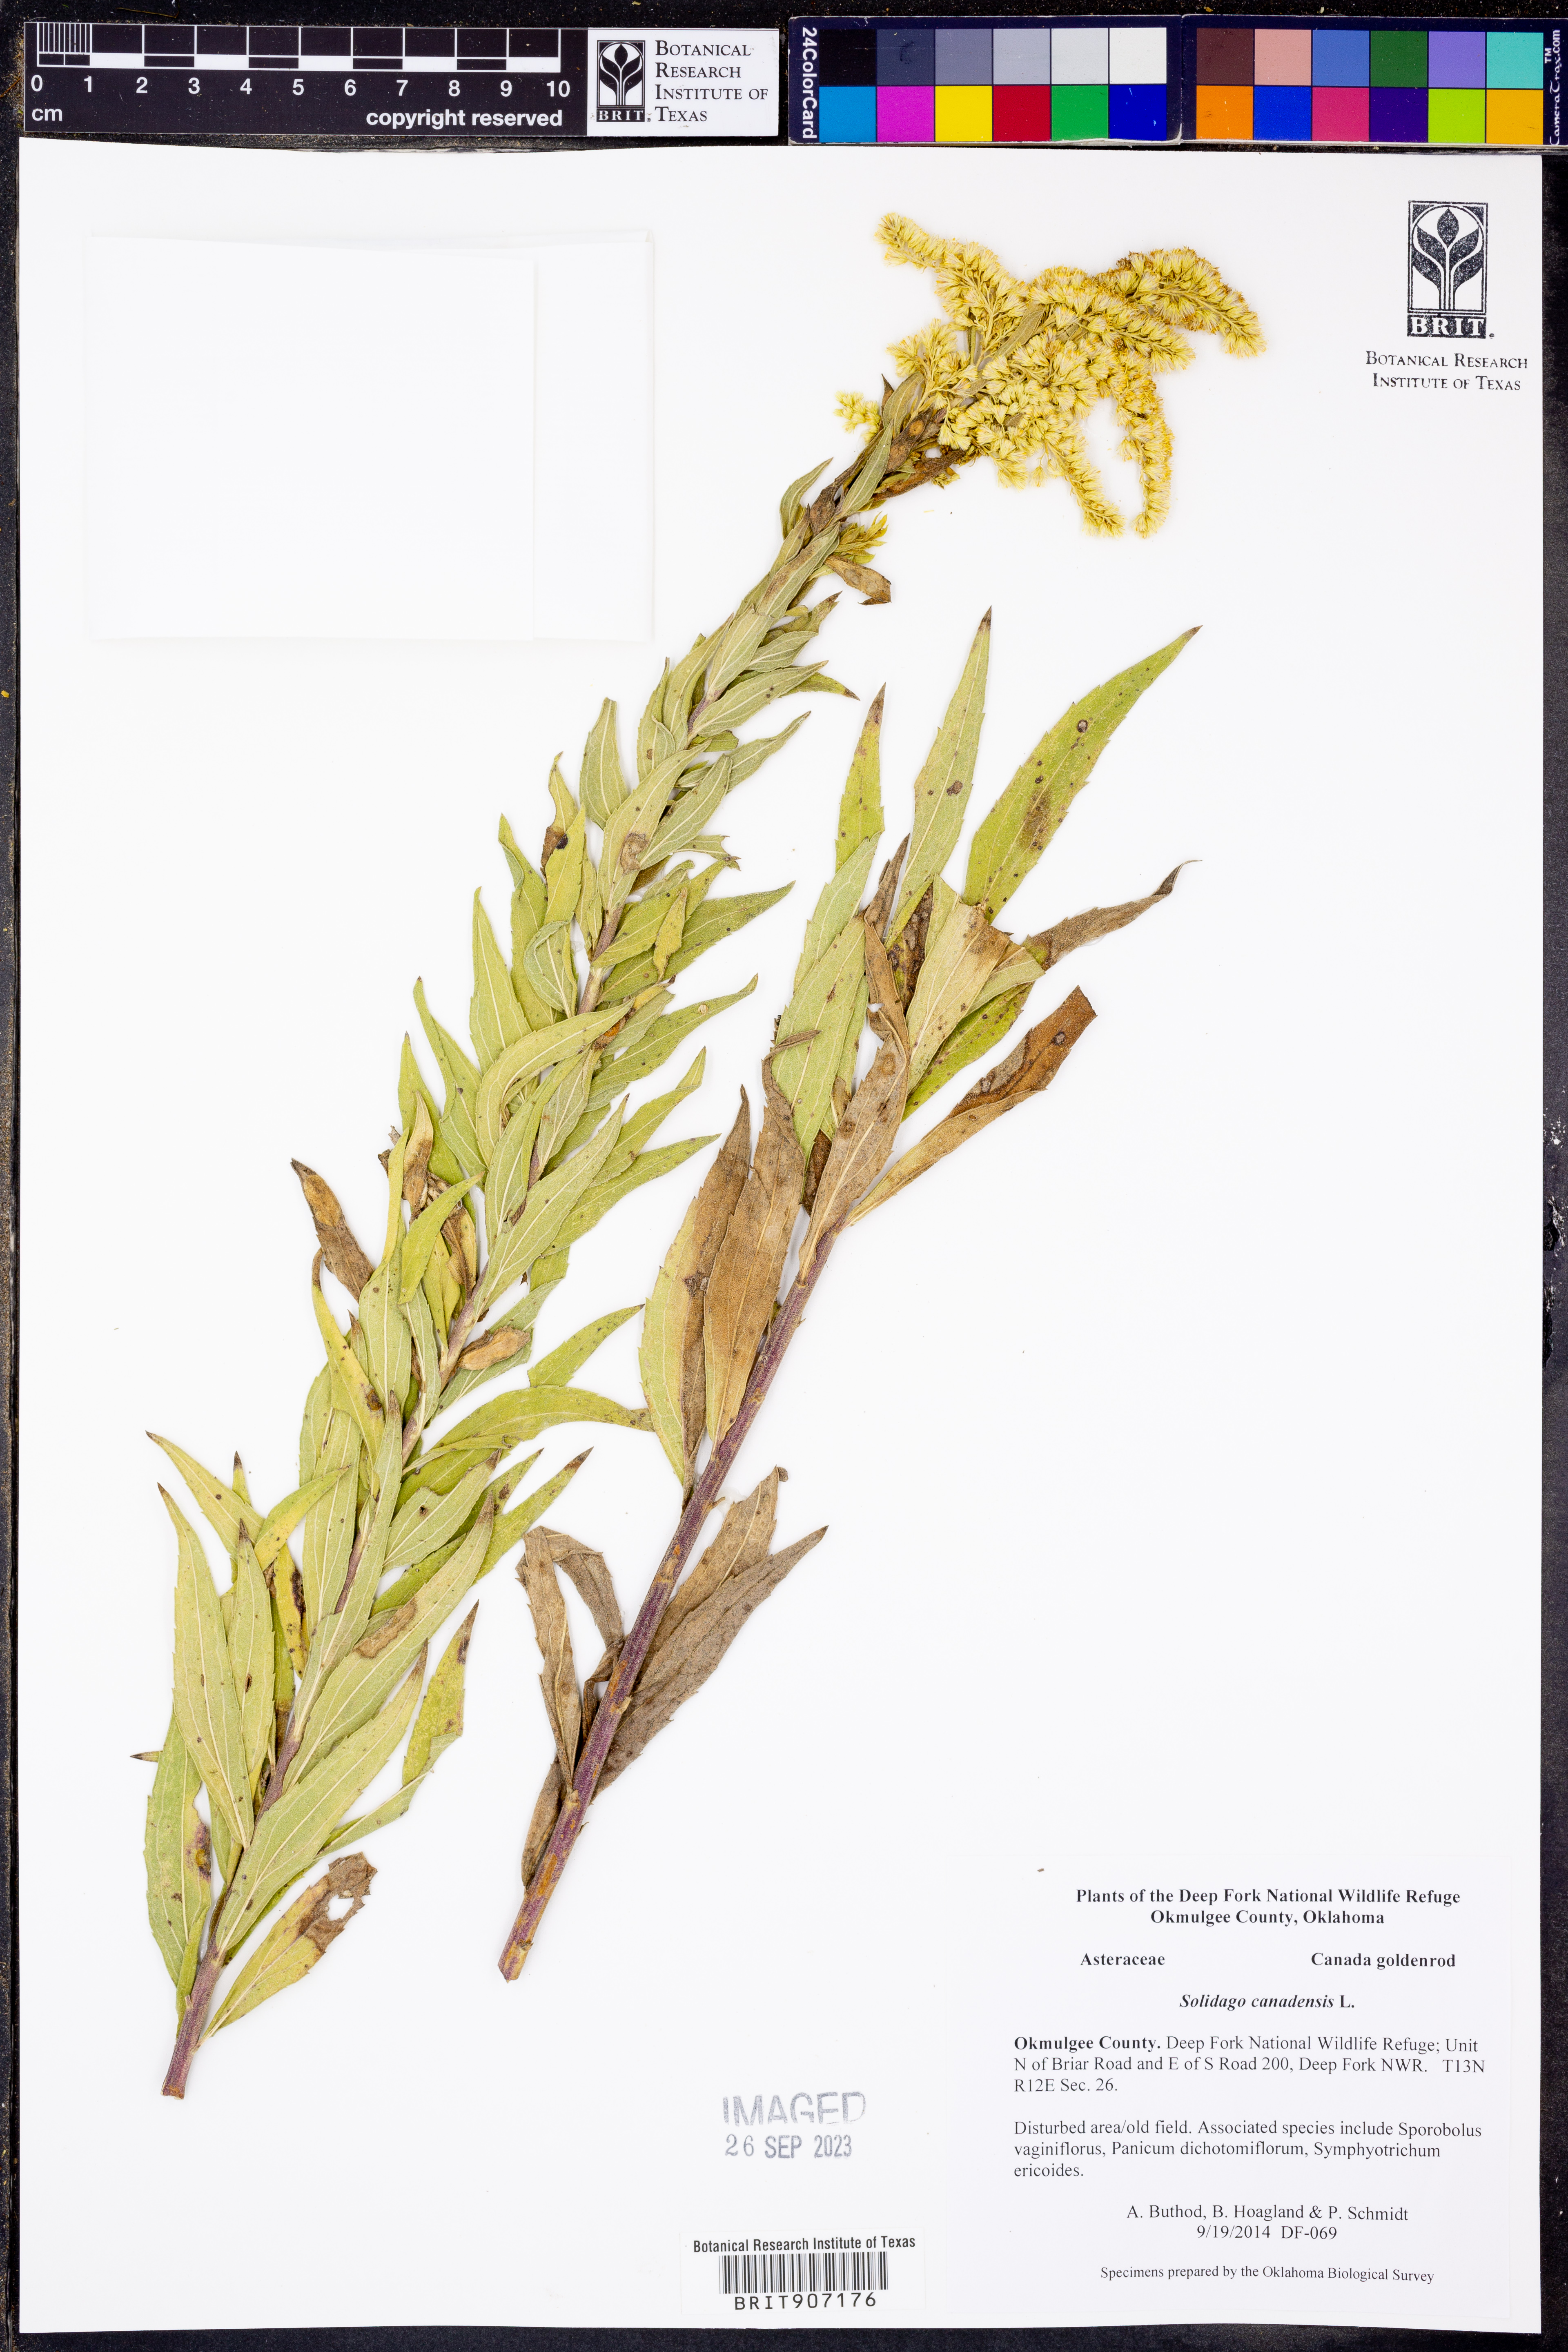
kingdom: Plantae
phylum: Tracheophyta
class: Magnoliopsida
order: Asterales
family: Asteraceae
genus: Solidago
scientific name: Solidago canadensis
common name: Canada goldenrod
